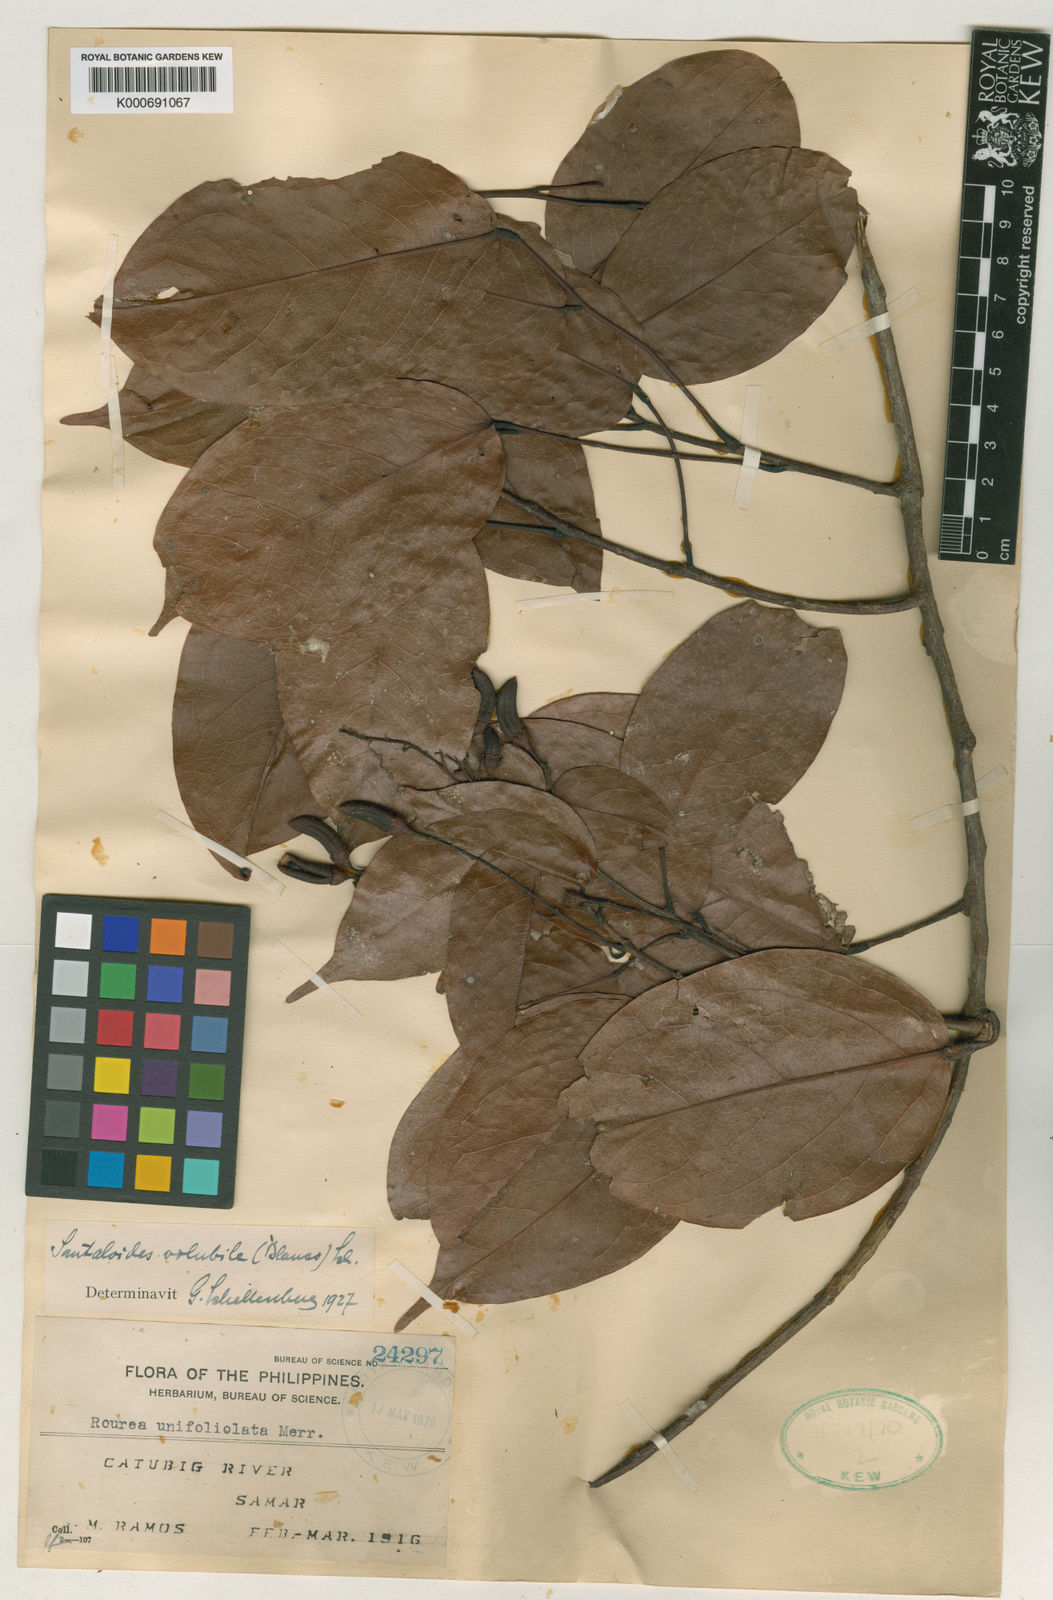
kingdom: Plantae
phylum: Tracheophyta
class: Magnoliopsida
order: Oxalidales
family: Connaraceae
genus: Rourea
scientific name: Rourea
